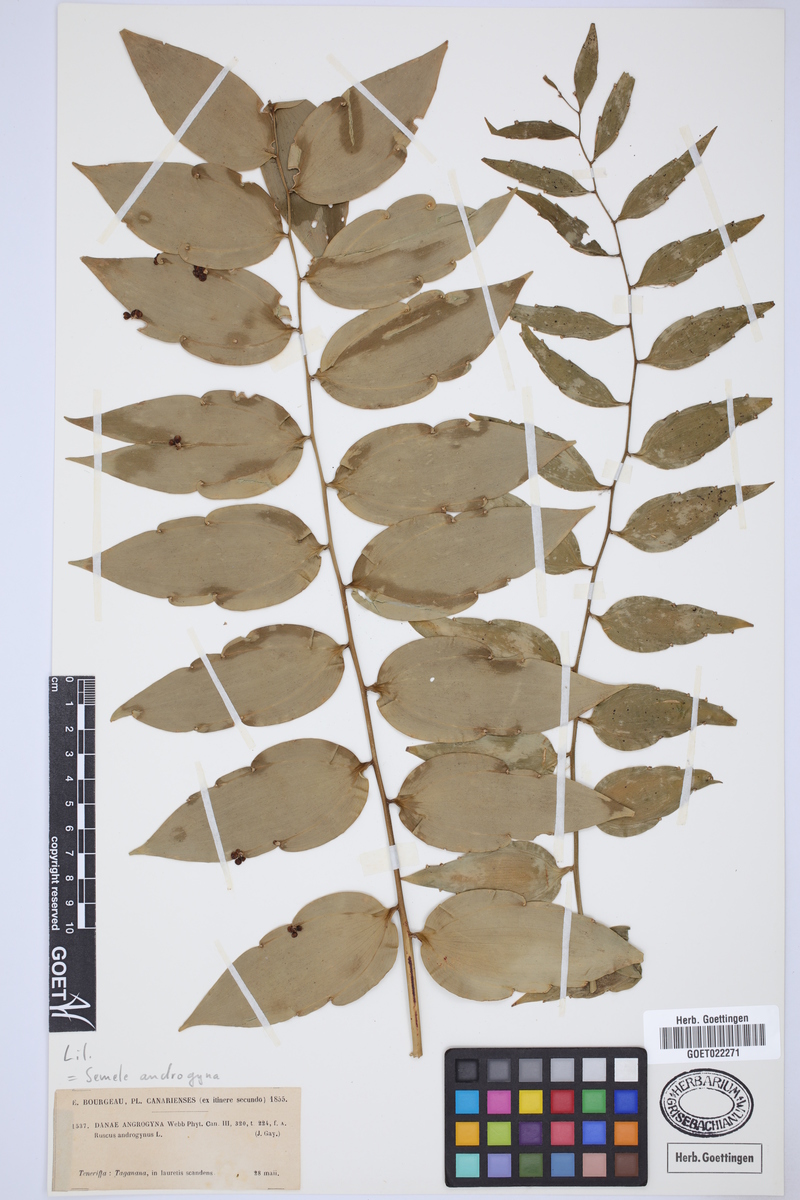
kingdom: Plantae
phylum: Tracheophyta
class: Liliopsida
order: Asparagales
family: Asparagaceae
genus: Semele
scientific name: Semele androgyna
